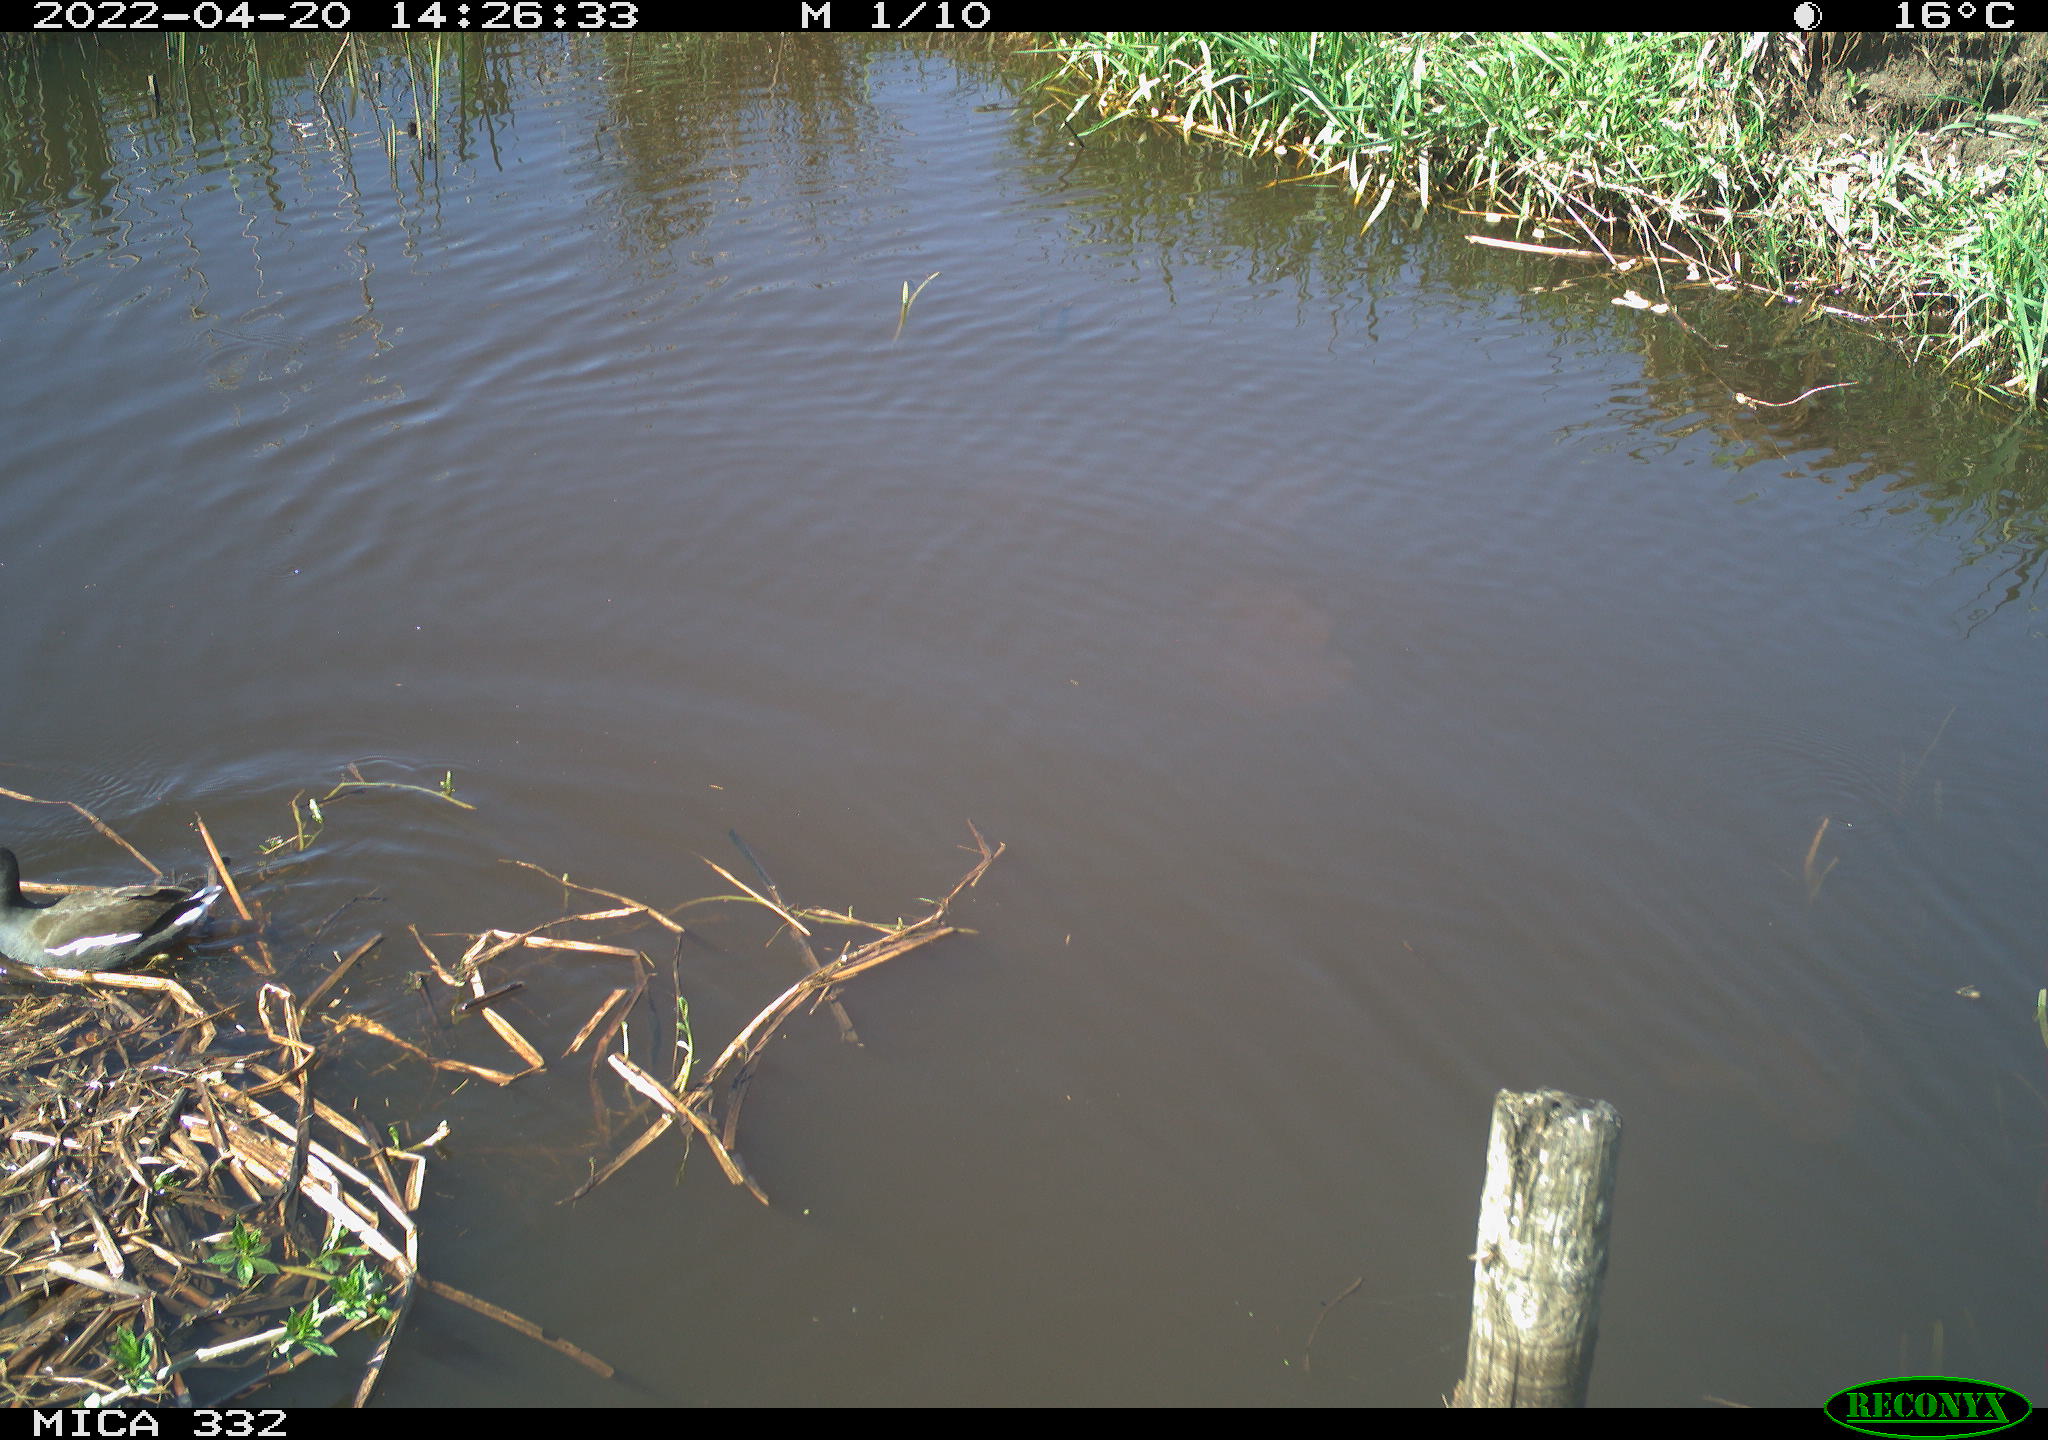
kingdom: Animalia
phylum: Chordata
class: Aves
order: Gruiformes
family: Rallidae
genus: Gallinula
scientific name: Gallinula chloropus
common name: Common moorhen
